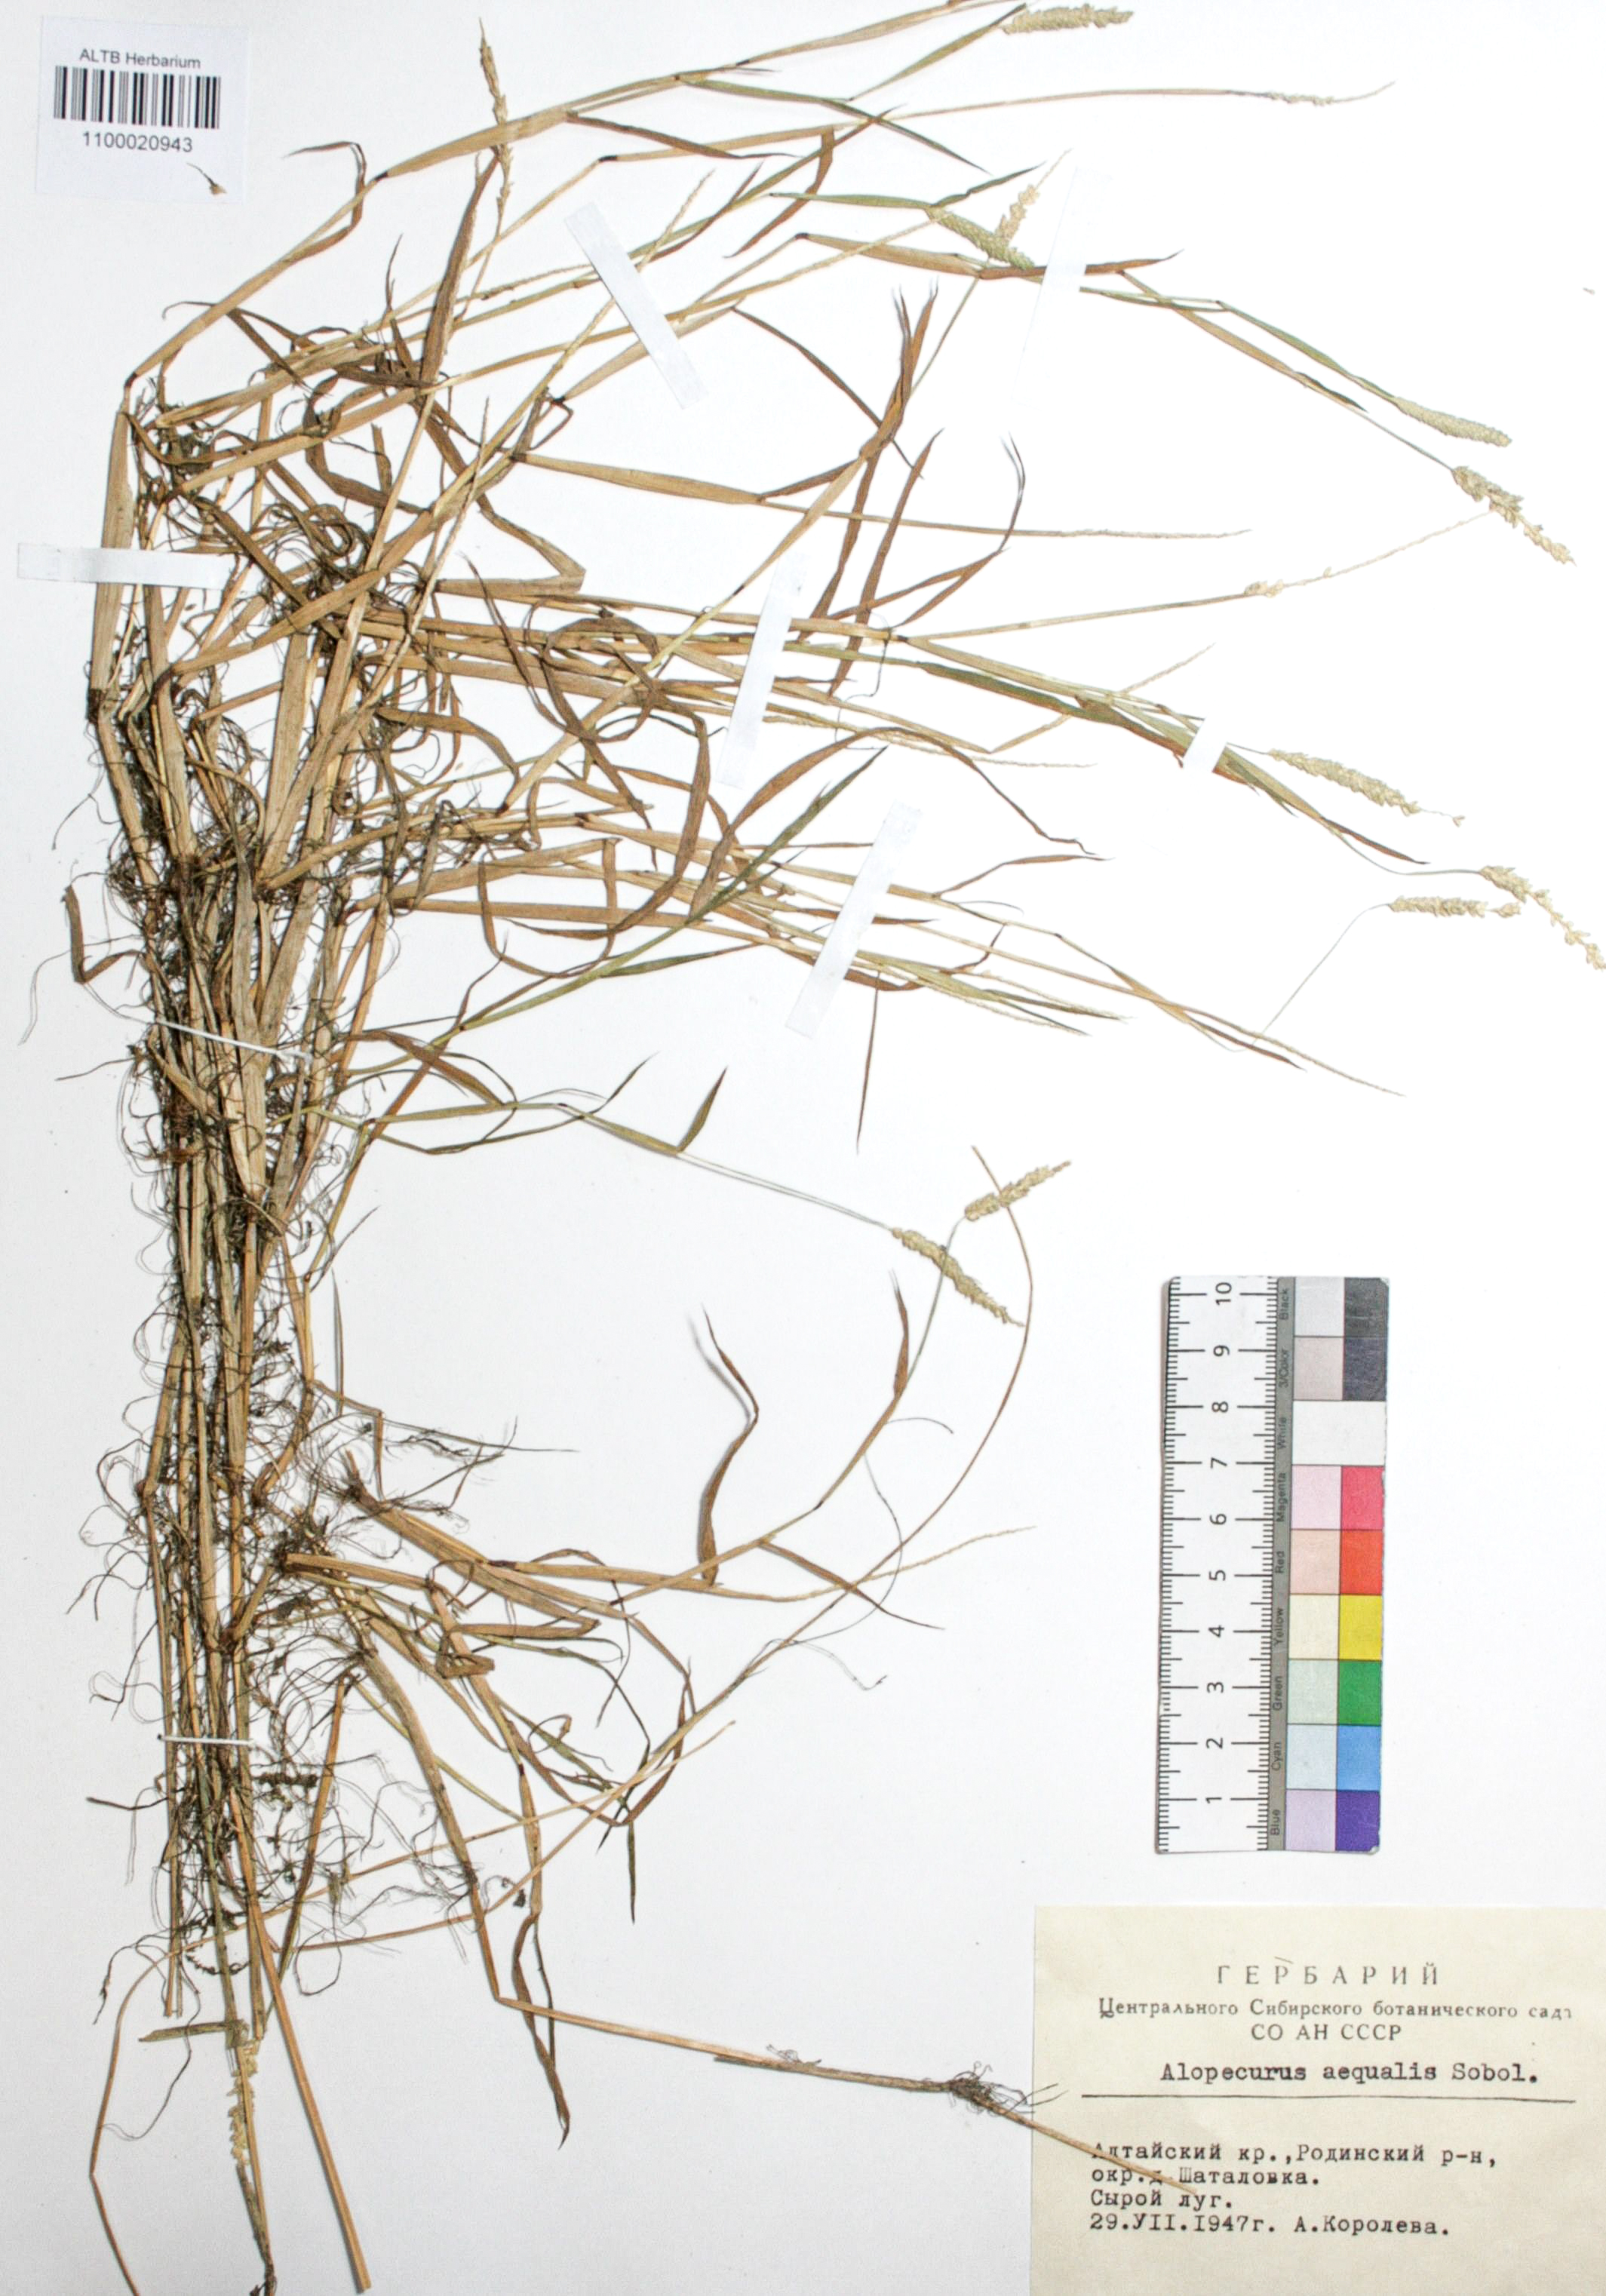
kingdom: Plantae
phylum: Tracheophyta
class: Liliopsida
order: Poales
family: Poaceae
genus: Alopecurus
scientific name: Alopecurus aequalis
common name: Orange foxtail
